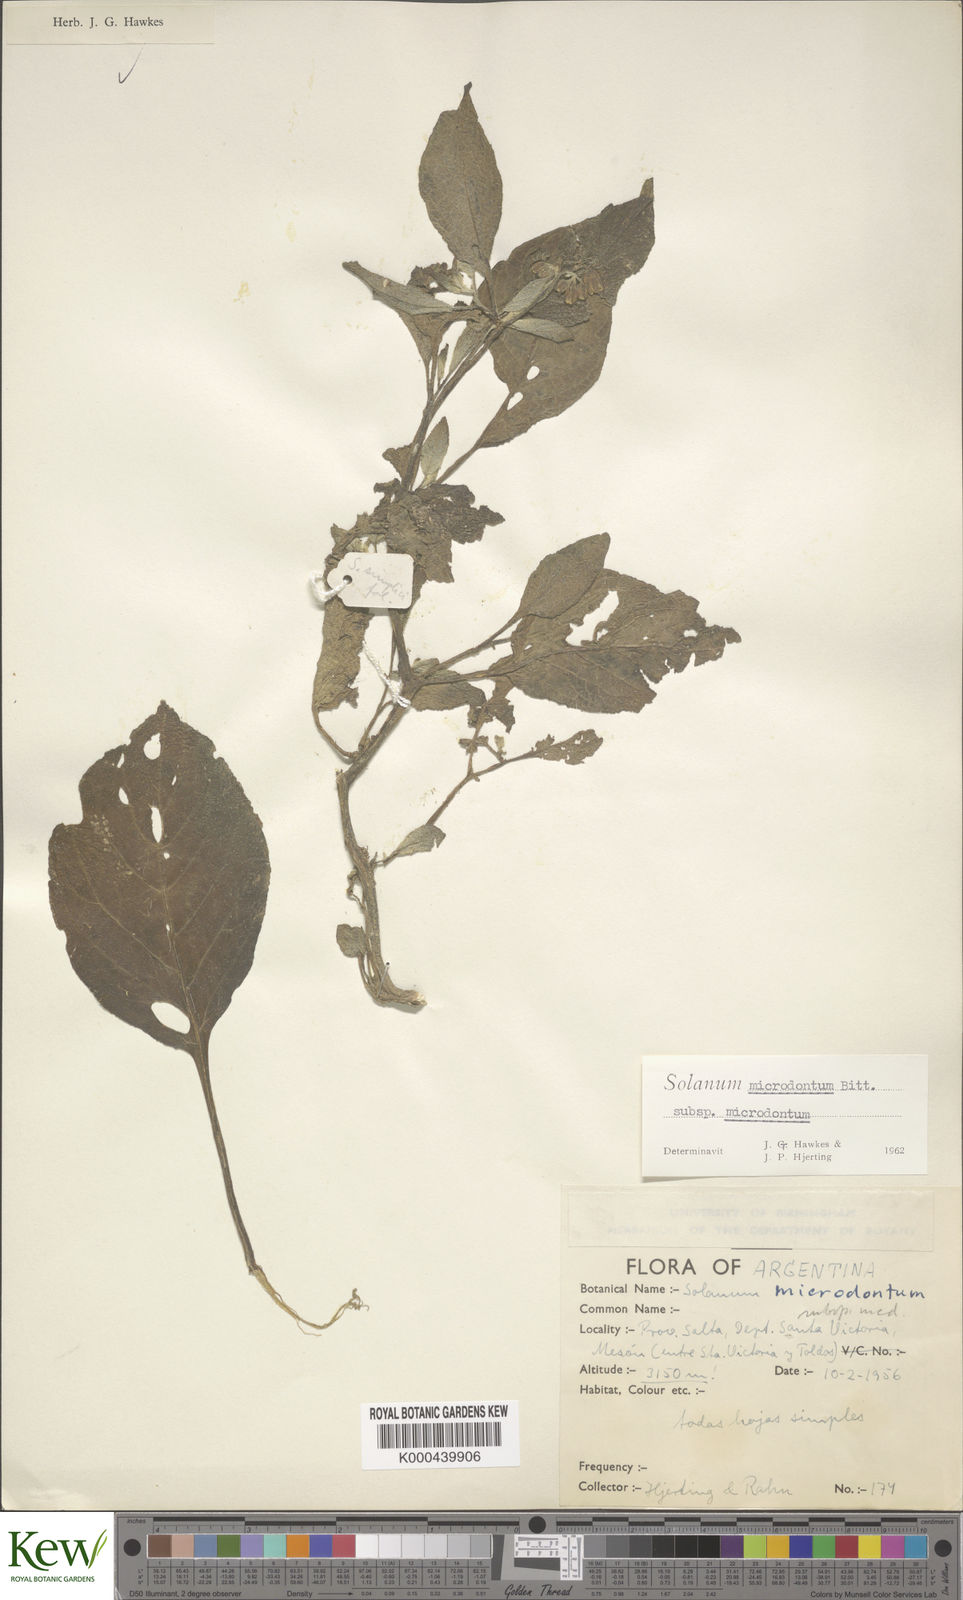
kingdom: Plantae
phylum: Tracheophyta
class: Magnoliopsida
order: Solanales
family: Solanaceae
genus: Solanum
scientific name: Solanum microdontum
